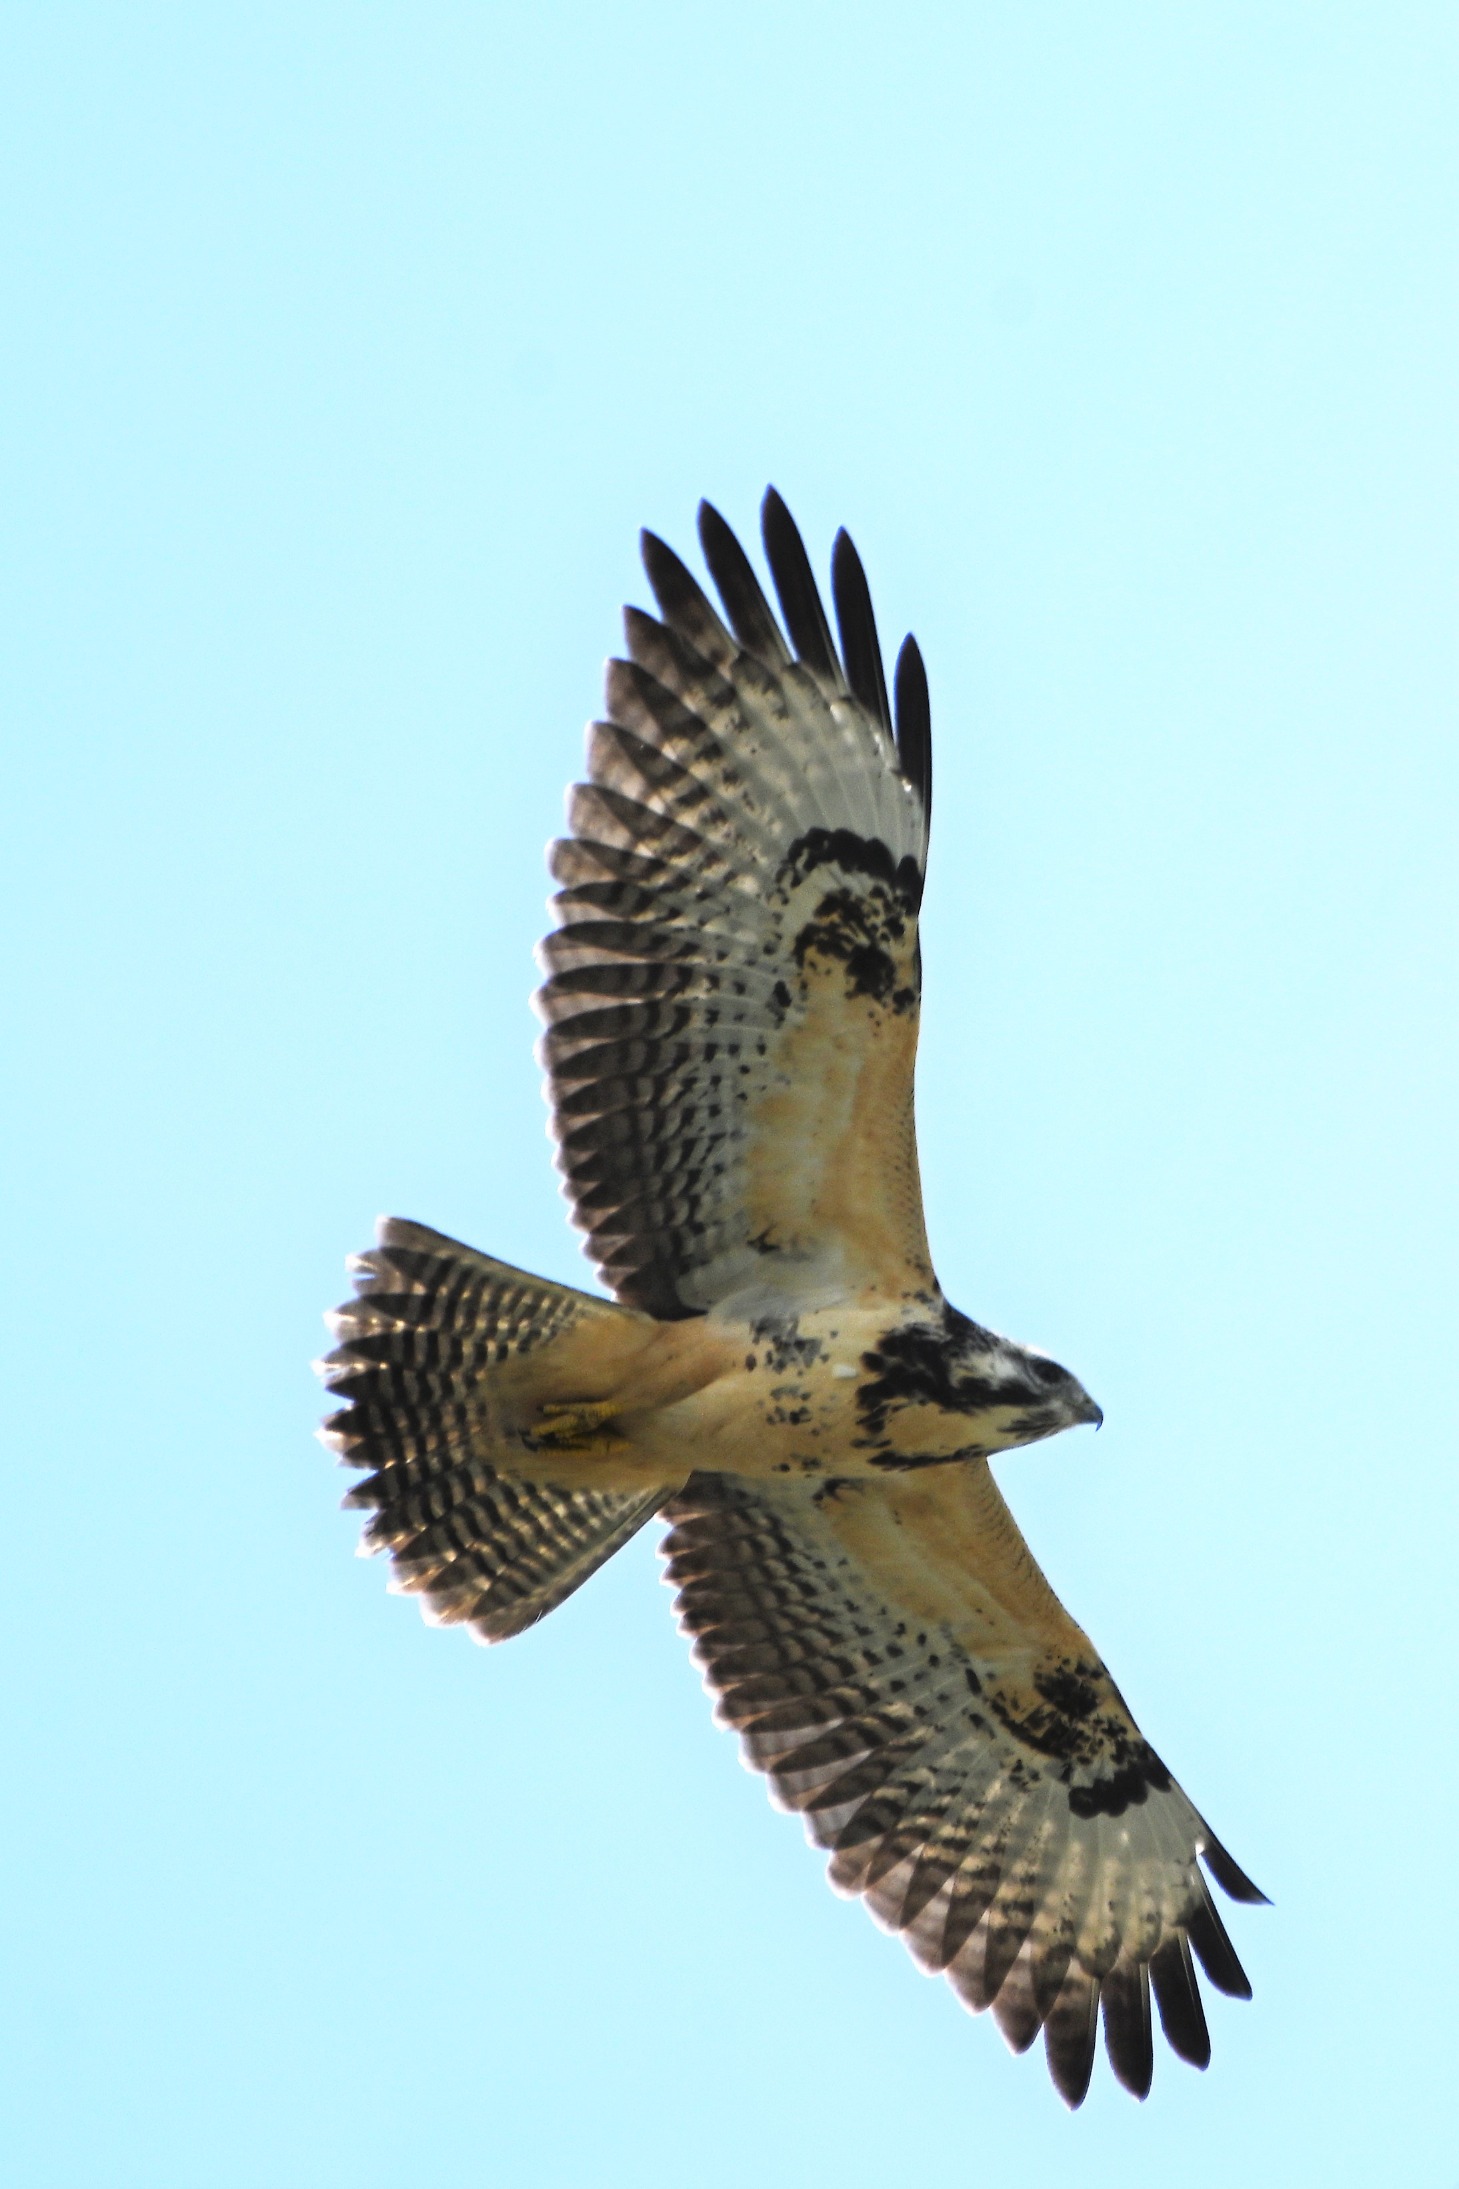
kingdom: Animalia
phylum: Chordata
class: Aves
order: Accipitriformes
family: Accipitridae
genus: Buteo
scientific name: Buteo buteo
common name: Musvåge
